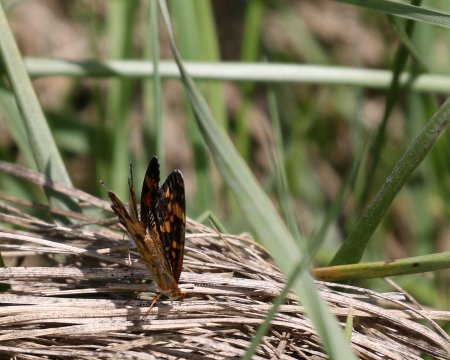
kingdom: Animalia
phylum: Arthropoda
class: Insecta
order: Lepidoptera
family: Nymphalidae
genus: Phyciodes
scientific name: Phyciodes tharos
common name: Pearl Crescent
